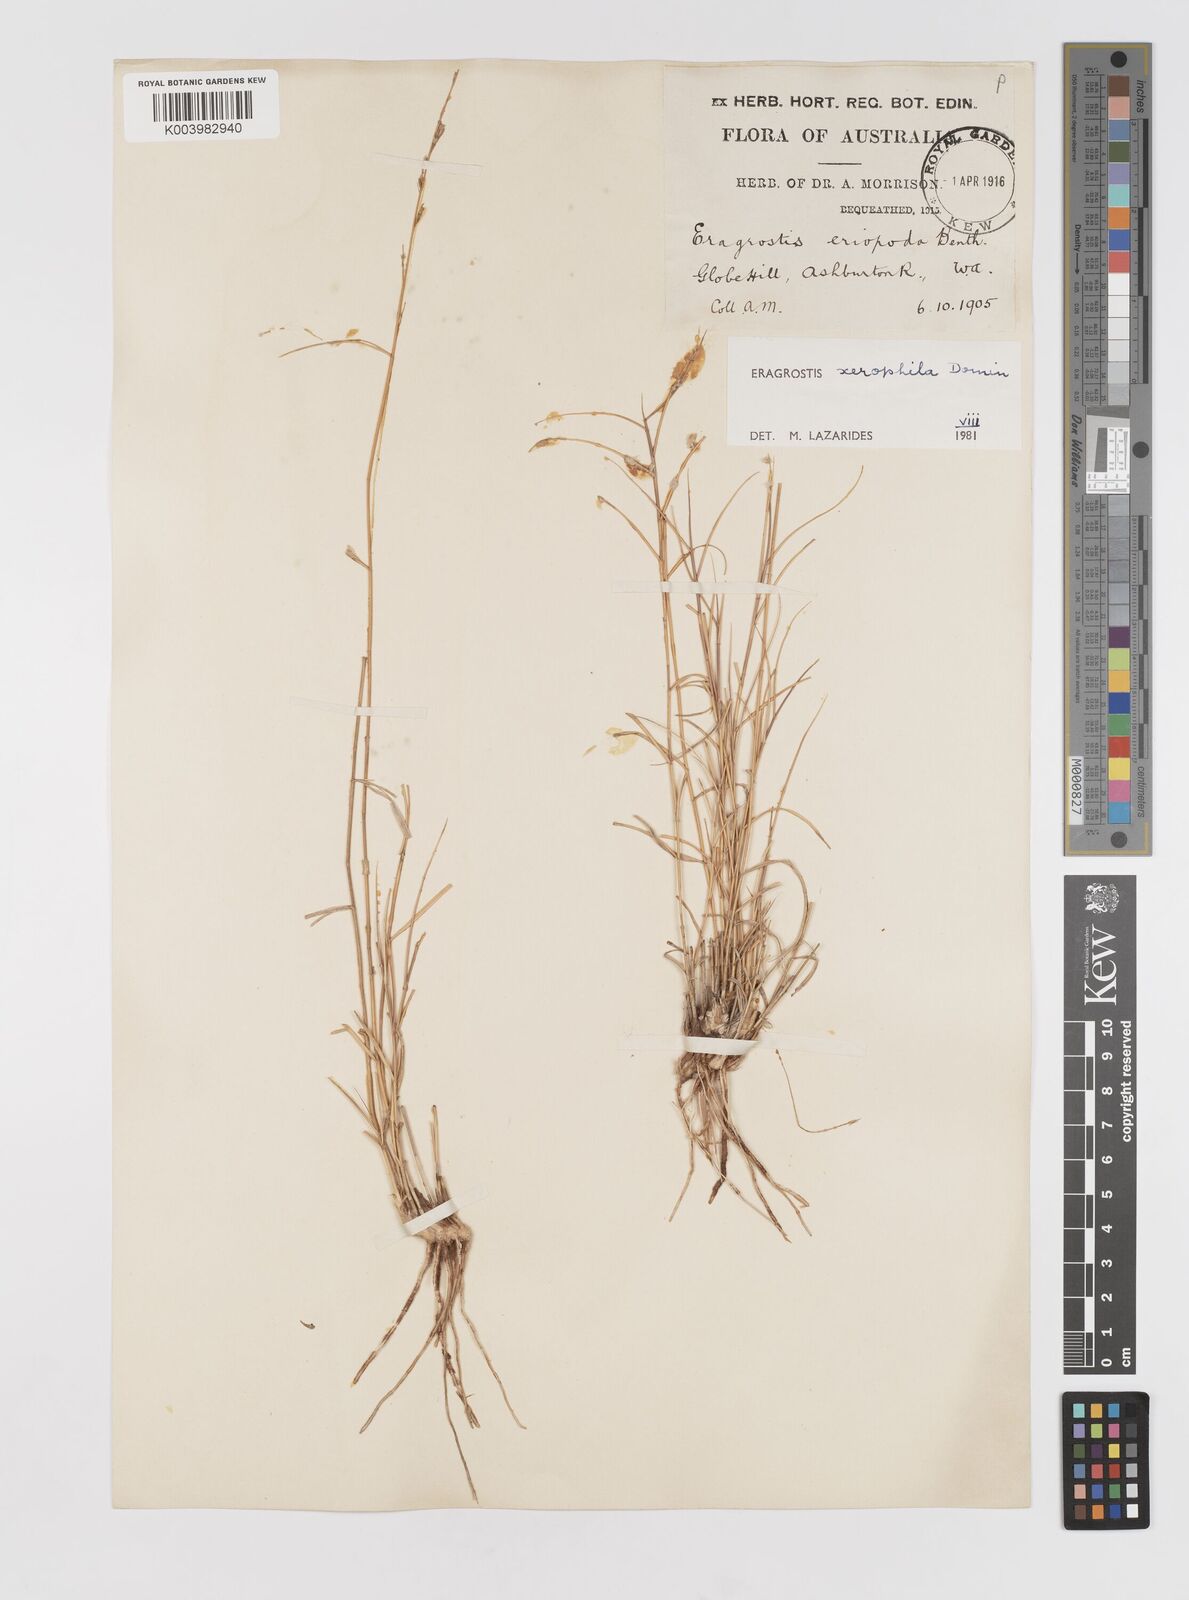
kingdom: Plantae
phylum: Tracheophyta
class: Liliopsida
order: Poales
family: Poaceae
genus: Eragrostis
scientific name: Eragrostis xerophila
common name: Wire wandarrie grass
